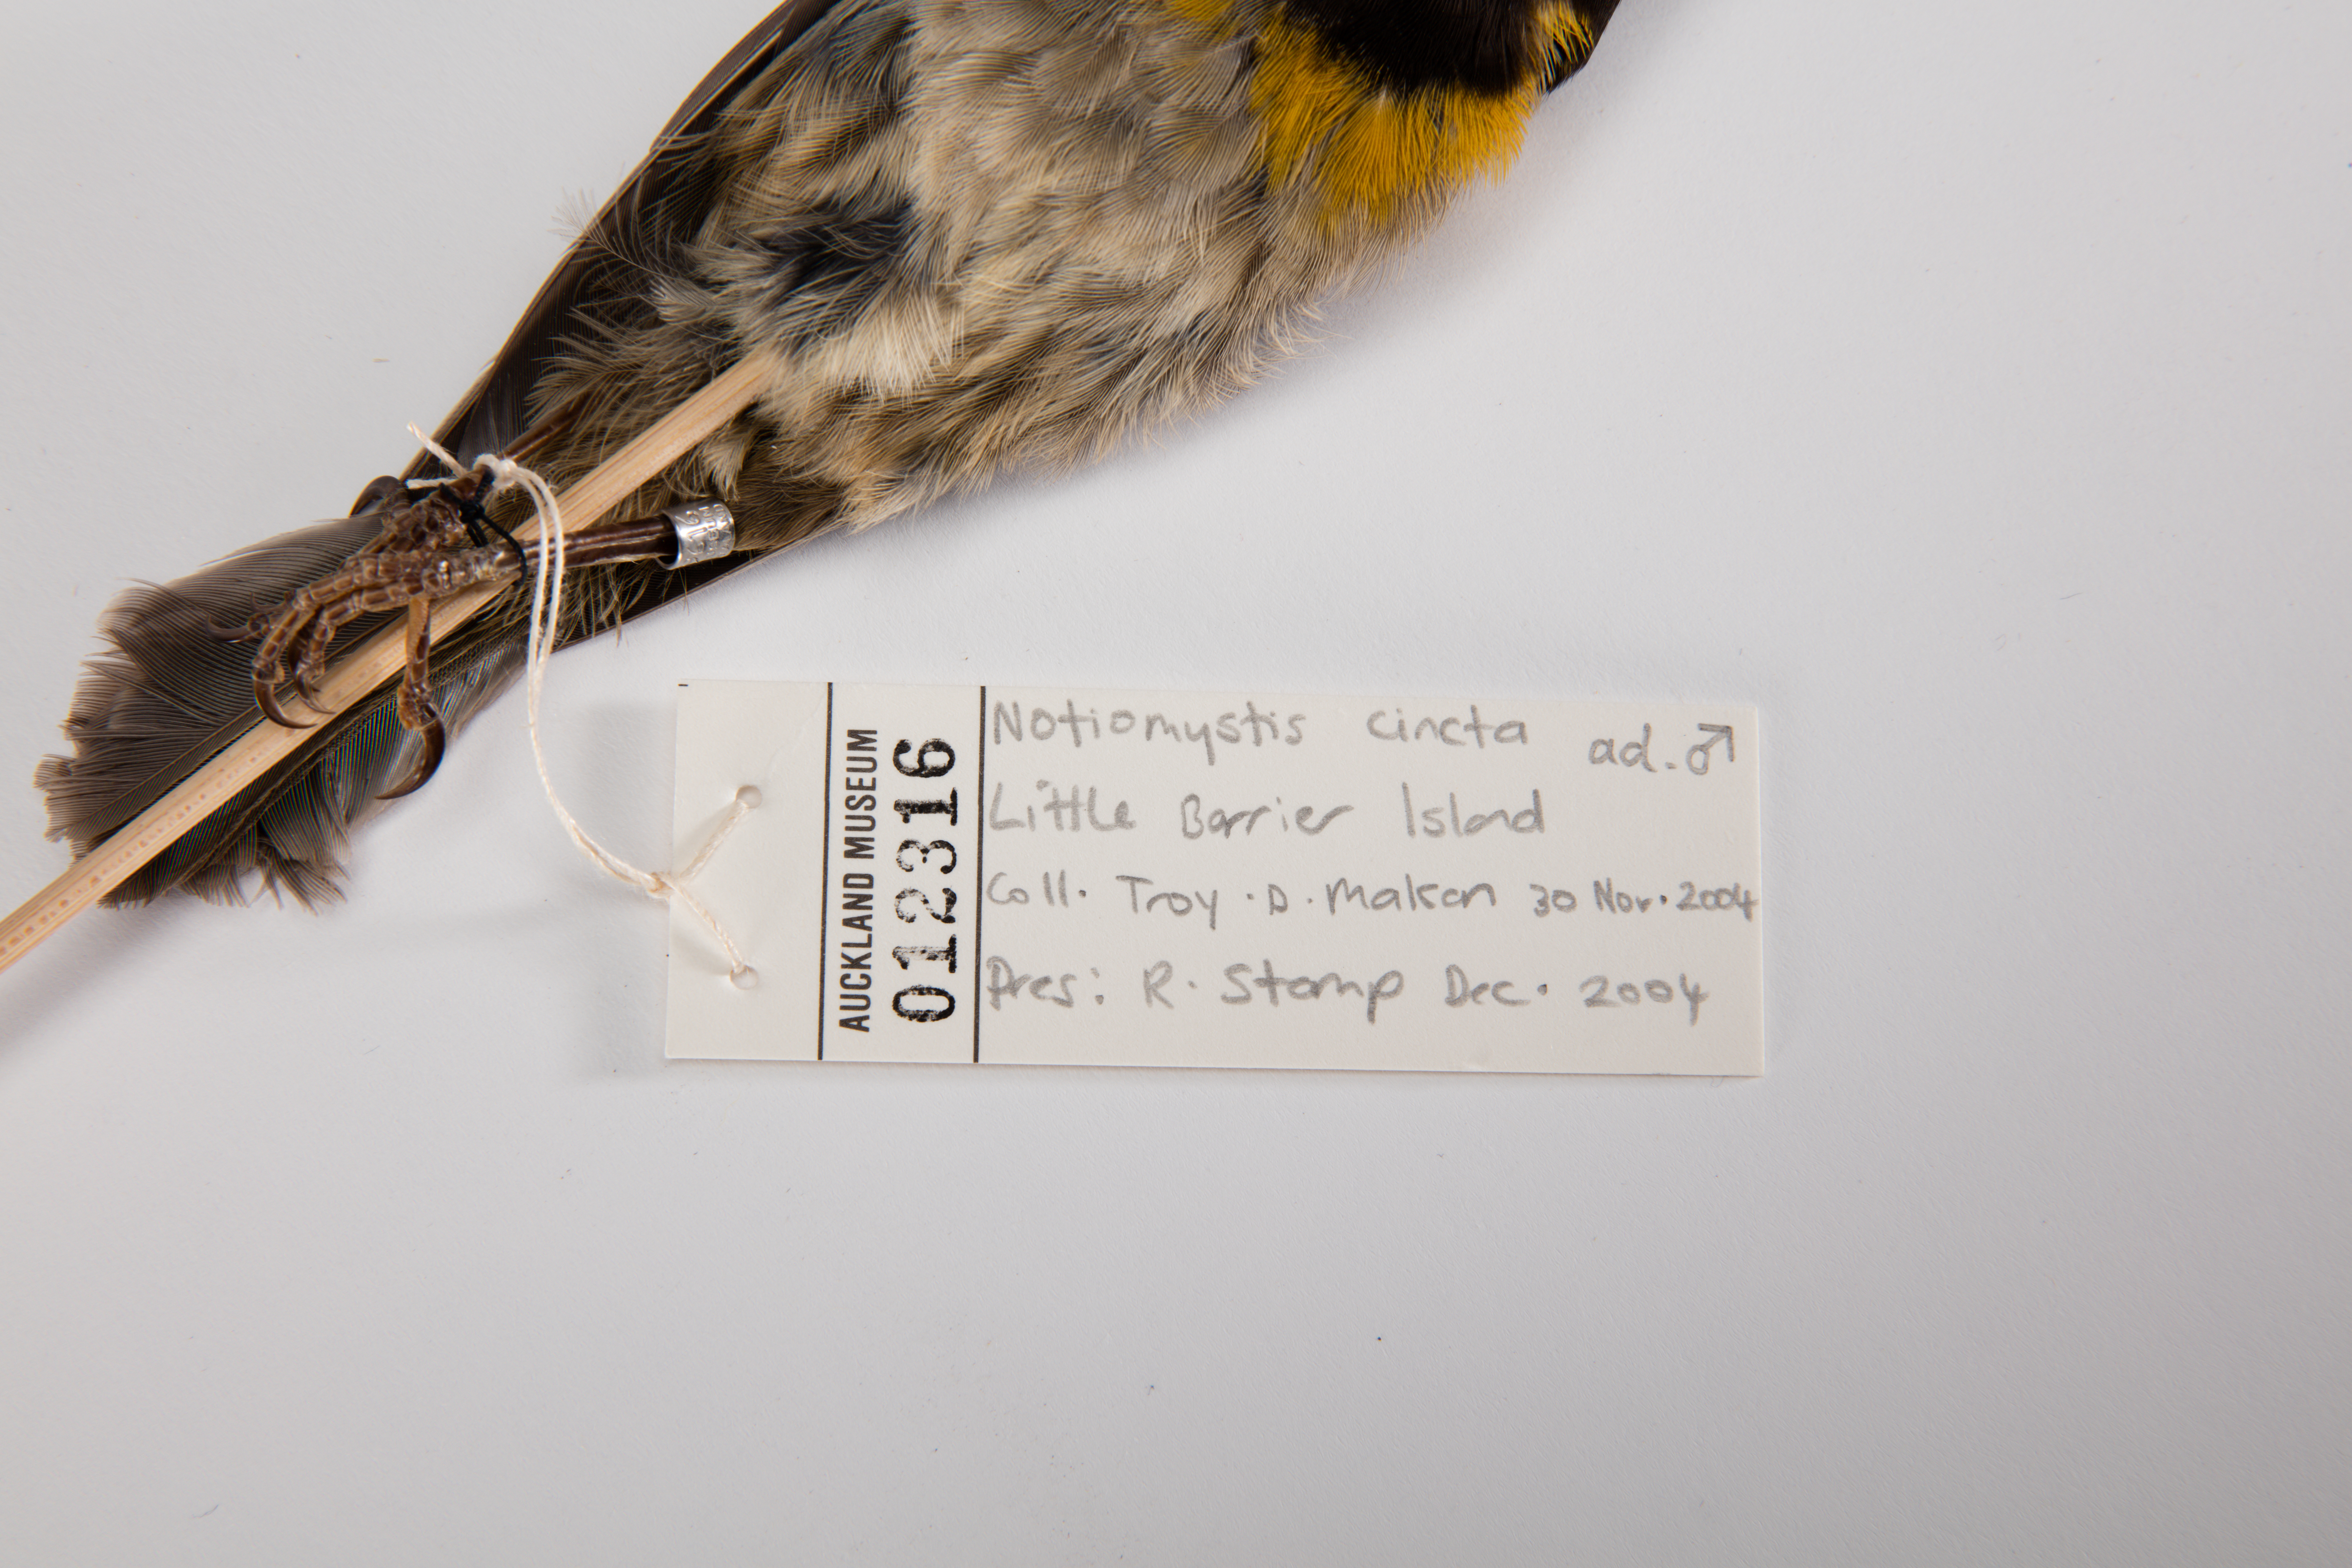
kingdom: Animalia
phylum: Chordata
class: Aves
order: Passeriformes
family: Notiomystidae
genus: Notiomystis
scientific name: Notiomystis cincta
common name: Stitchbird
